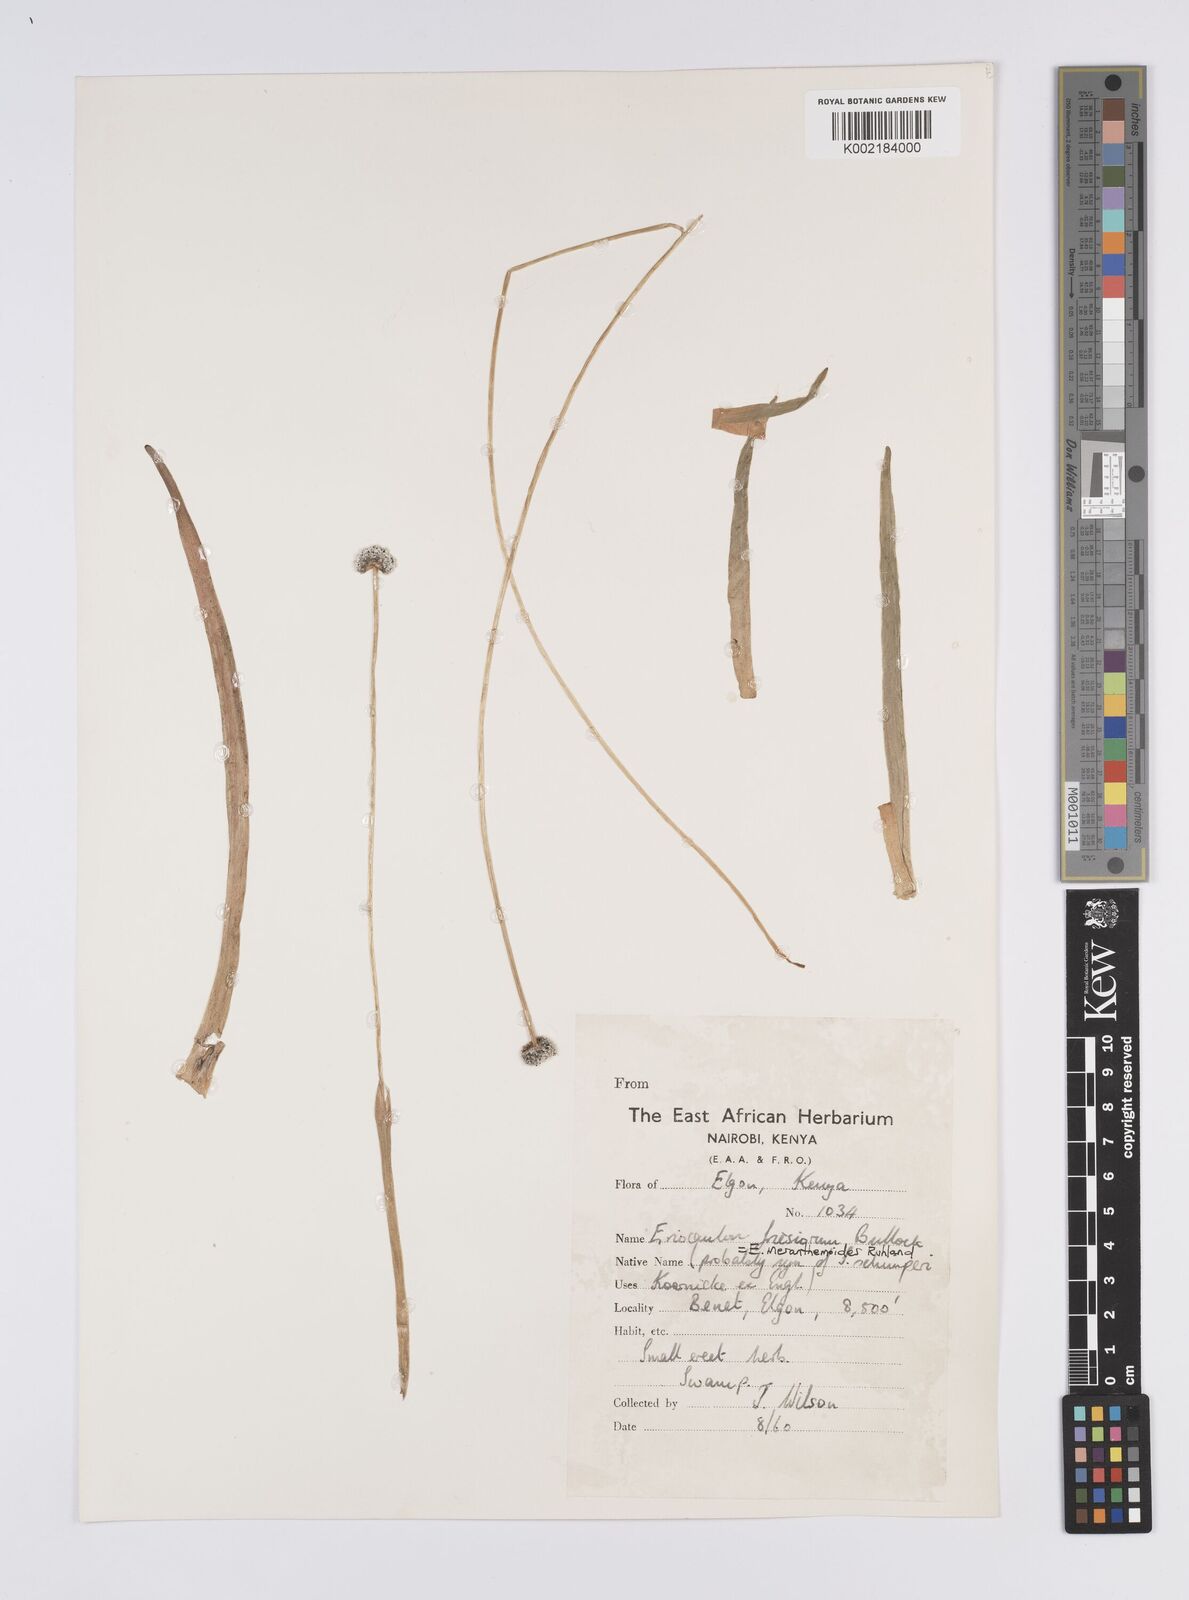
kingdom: Plantae
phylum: Tracheophyta
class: Liliopsida
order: Poales
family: Eriocaulaceae
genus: Eriocaulon
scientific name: Eriocaulon mesanthemoides
